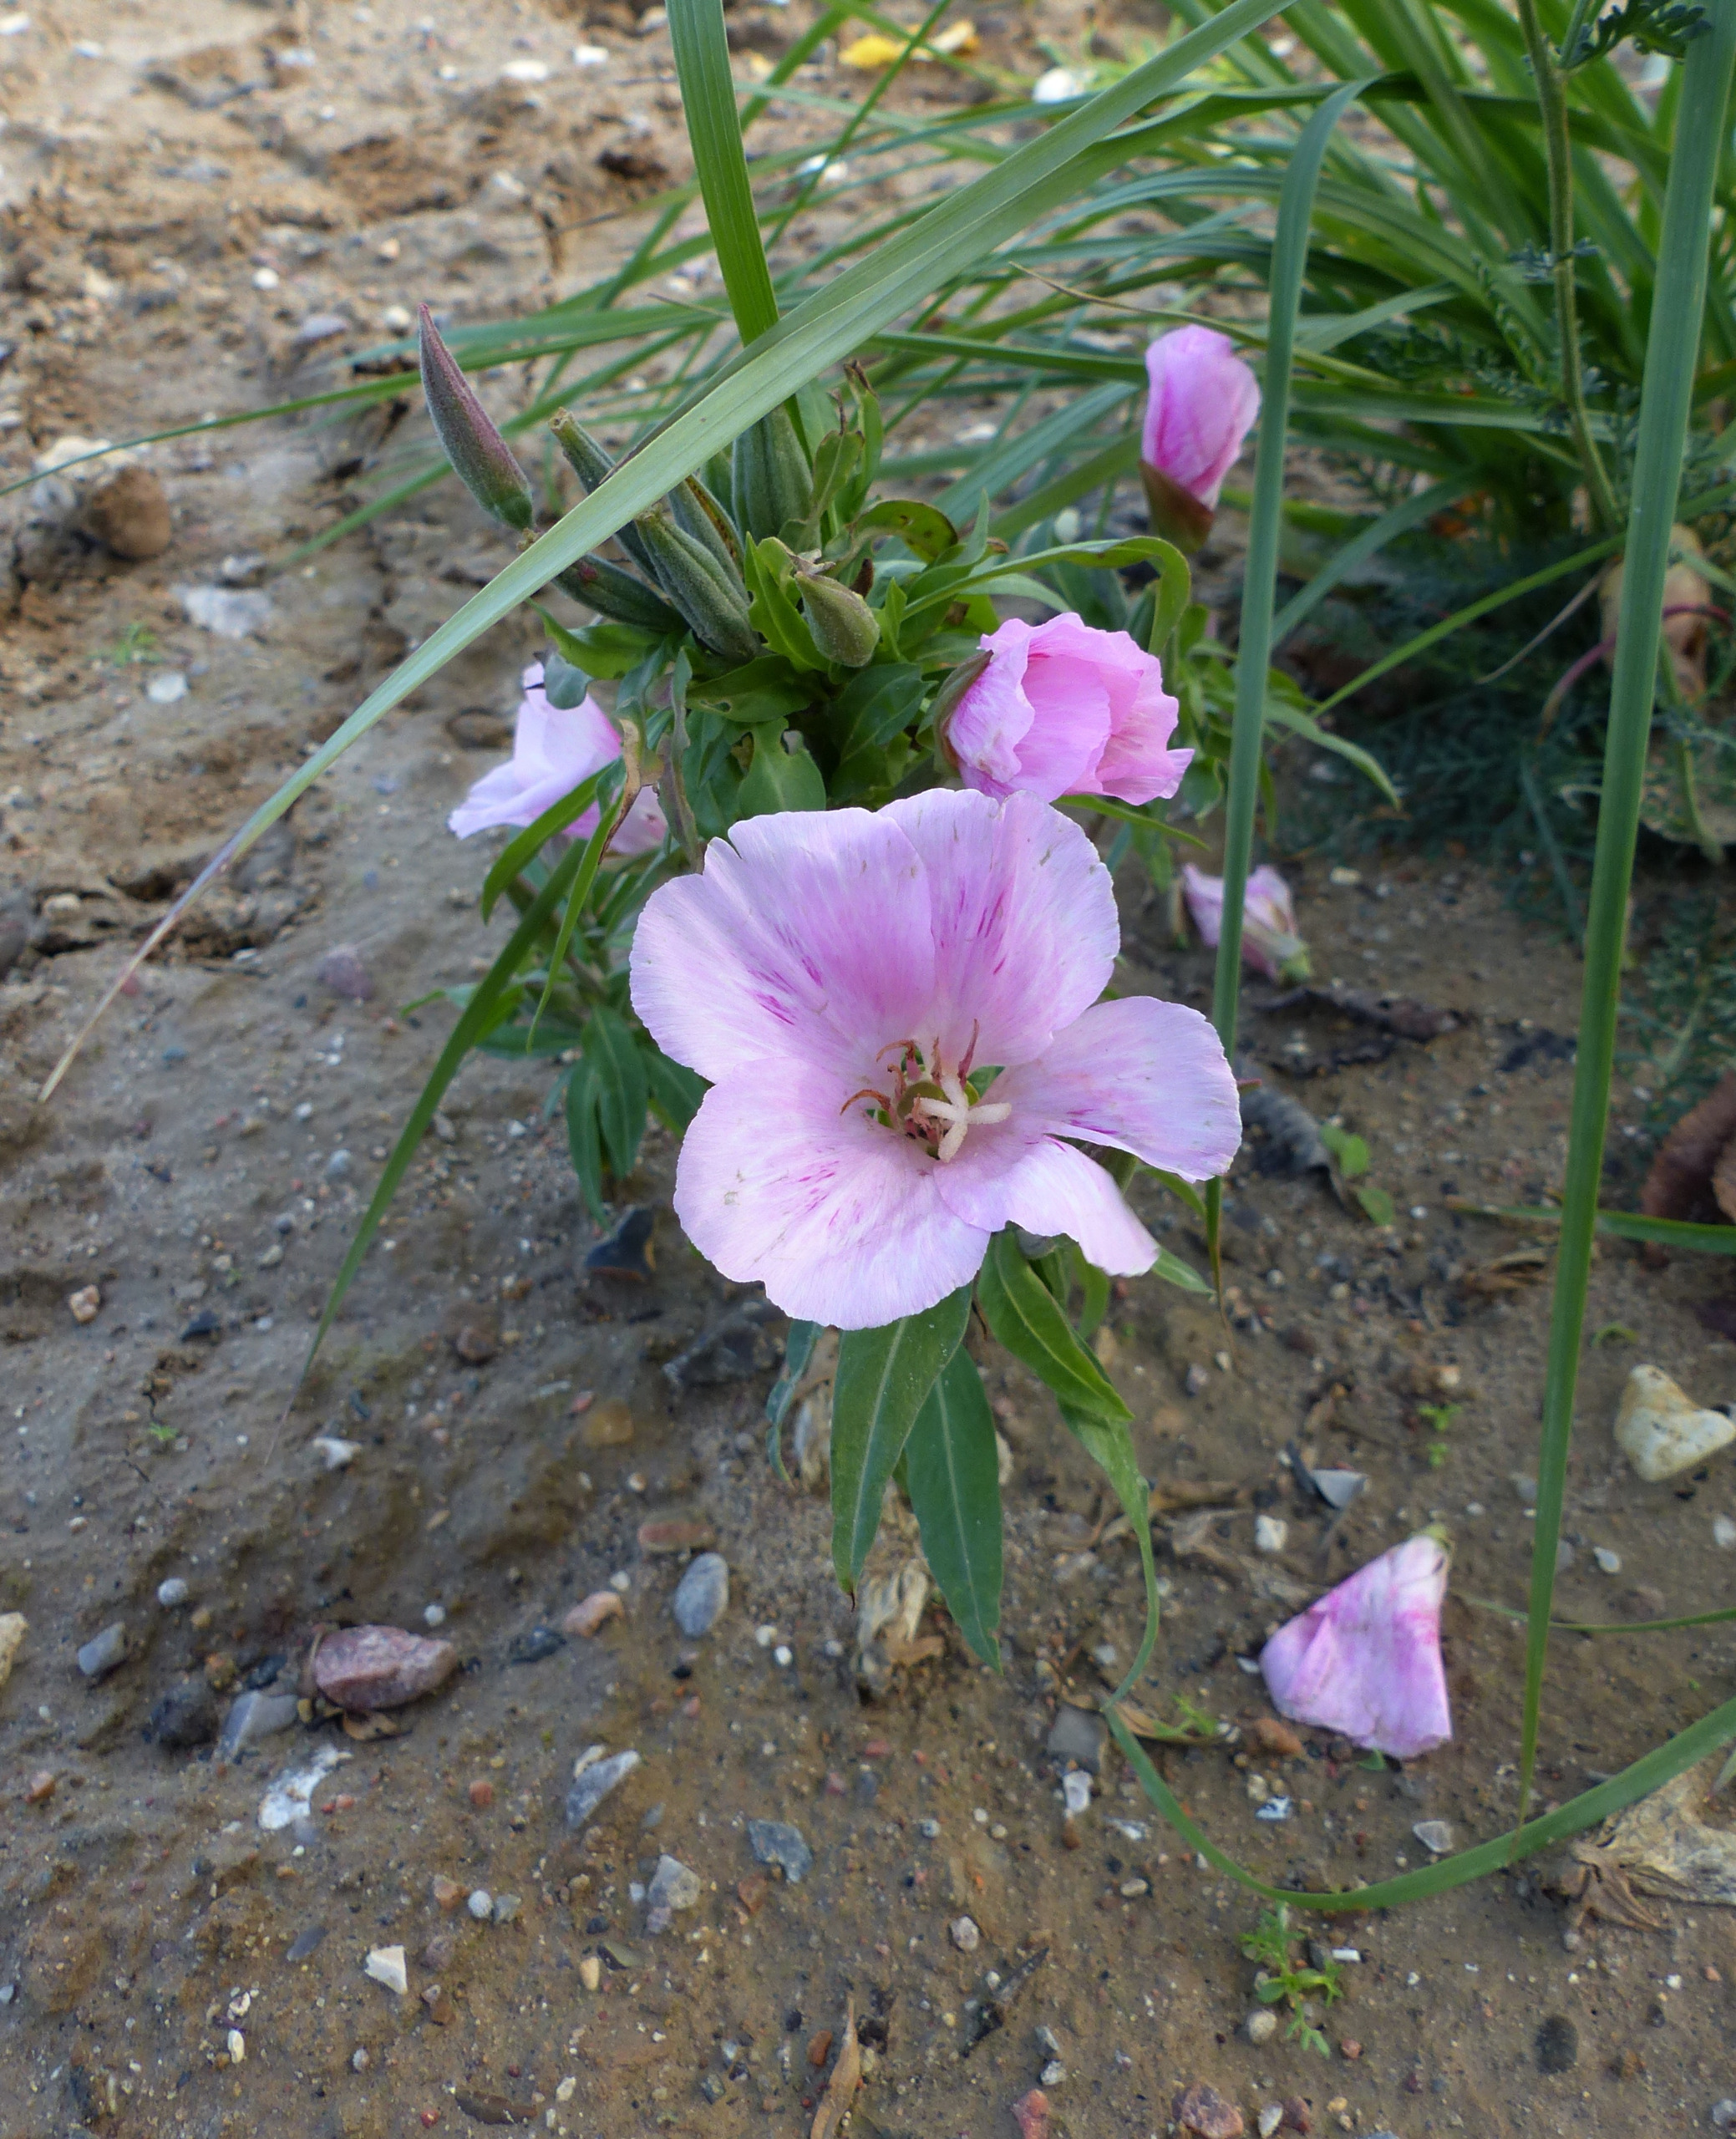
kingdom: Plantae
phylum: Tracheophyta
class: Magnoliopsida
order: Myrtales
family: Onagraceae
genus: Clarkia
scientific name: Clarkia amoena
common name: Atlaskblomst
